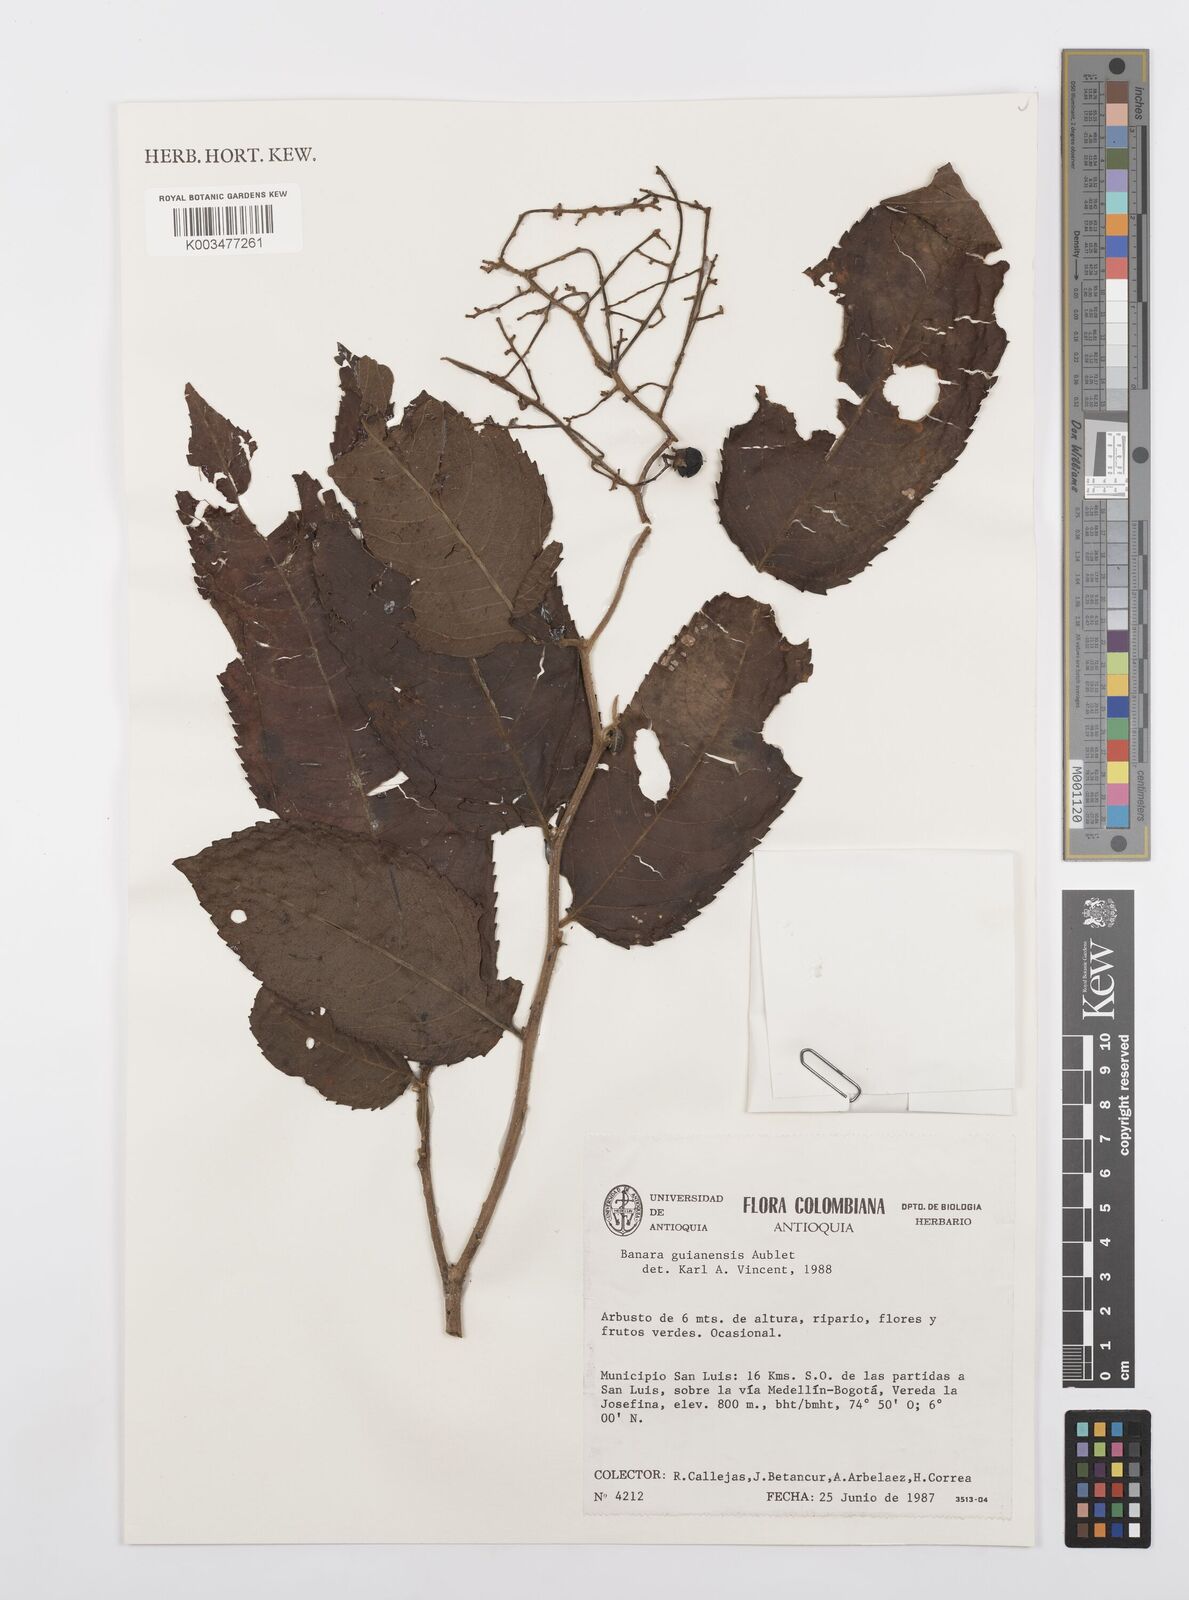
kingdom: Plantae
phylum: Tracheophyta
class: Magnoliopsida
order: Malpighiales
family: Salicaceae
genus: Banara
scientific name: Banara guianensis
